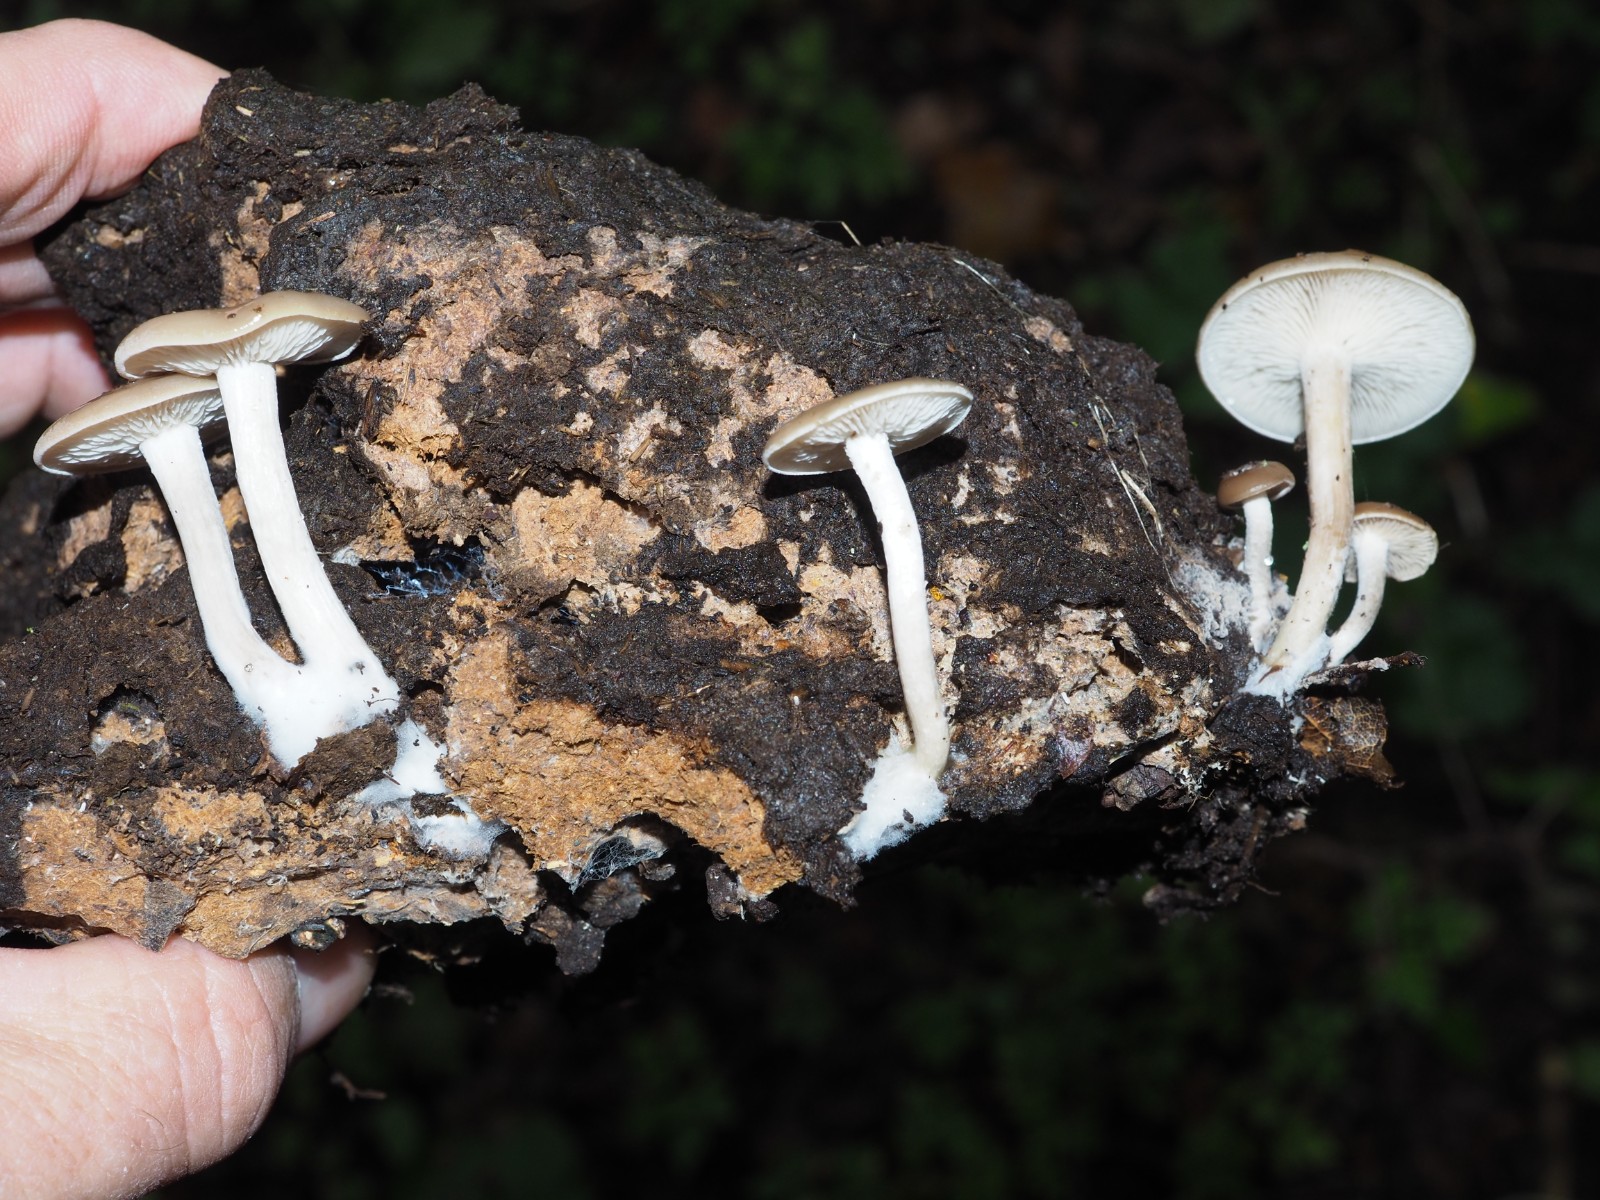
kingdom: Fungi
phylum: Basidiomycota
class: Agaricomycetes
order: Agaricales
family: Tricholomataceae
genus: Clitocybe
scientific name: Clitocybe amarescens
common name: gødnings-tragthat
